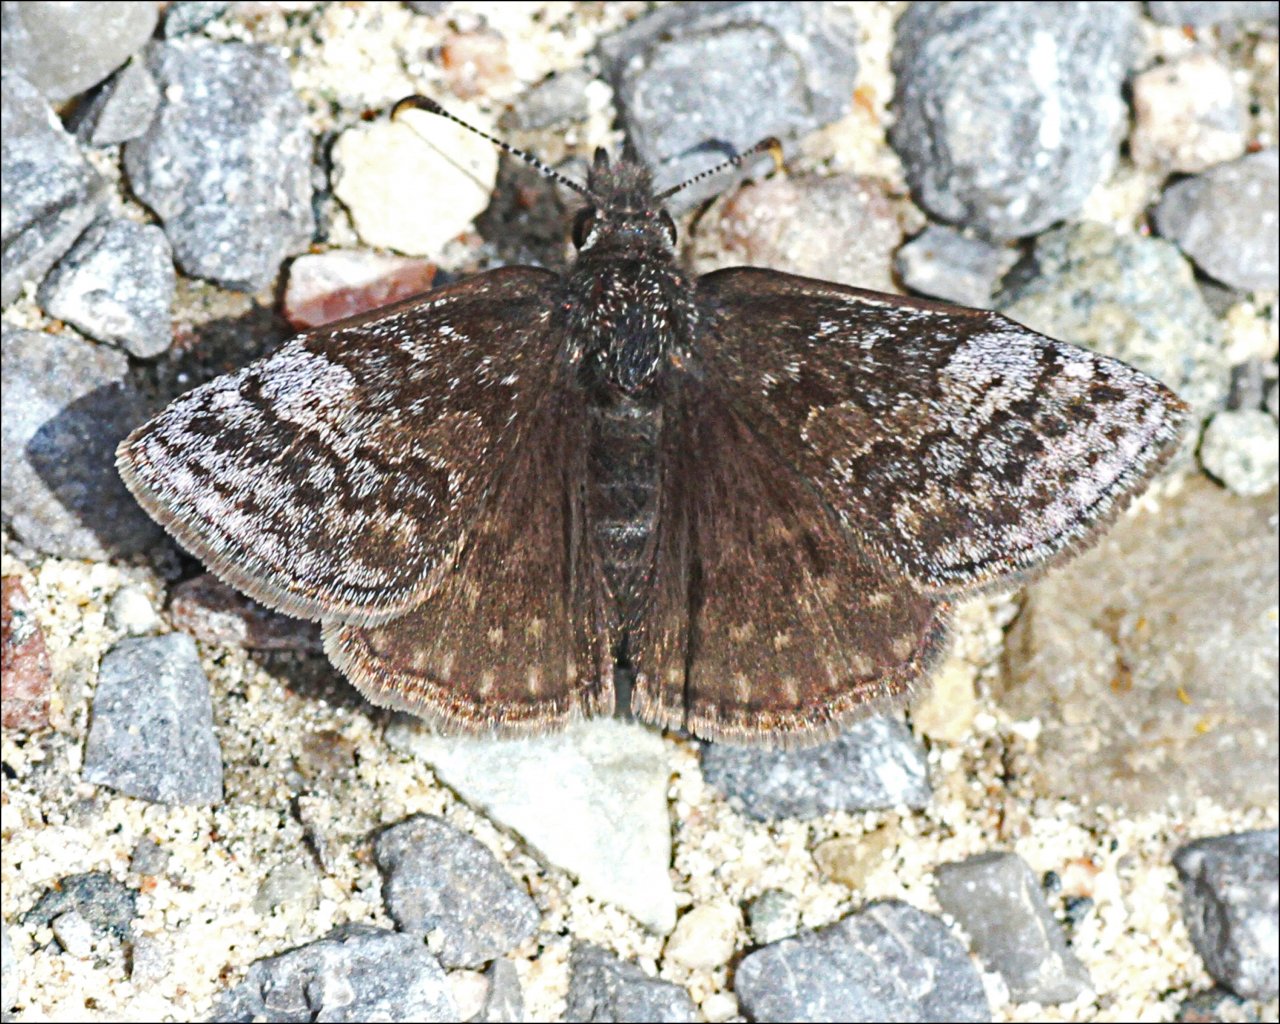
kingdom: Animalia
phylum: Arthropoda
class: Insecta
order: Lepidoptera
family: Hesperiidae
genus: Erynnis
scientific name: Erynnis icelus
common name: Dreamy Duskywing
